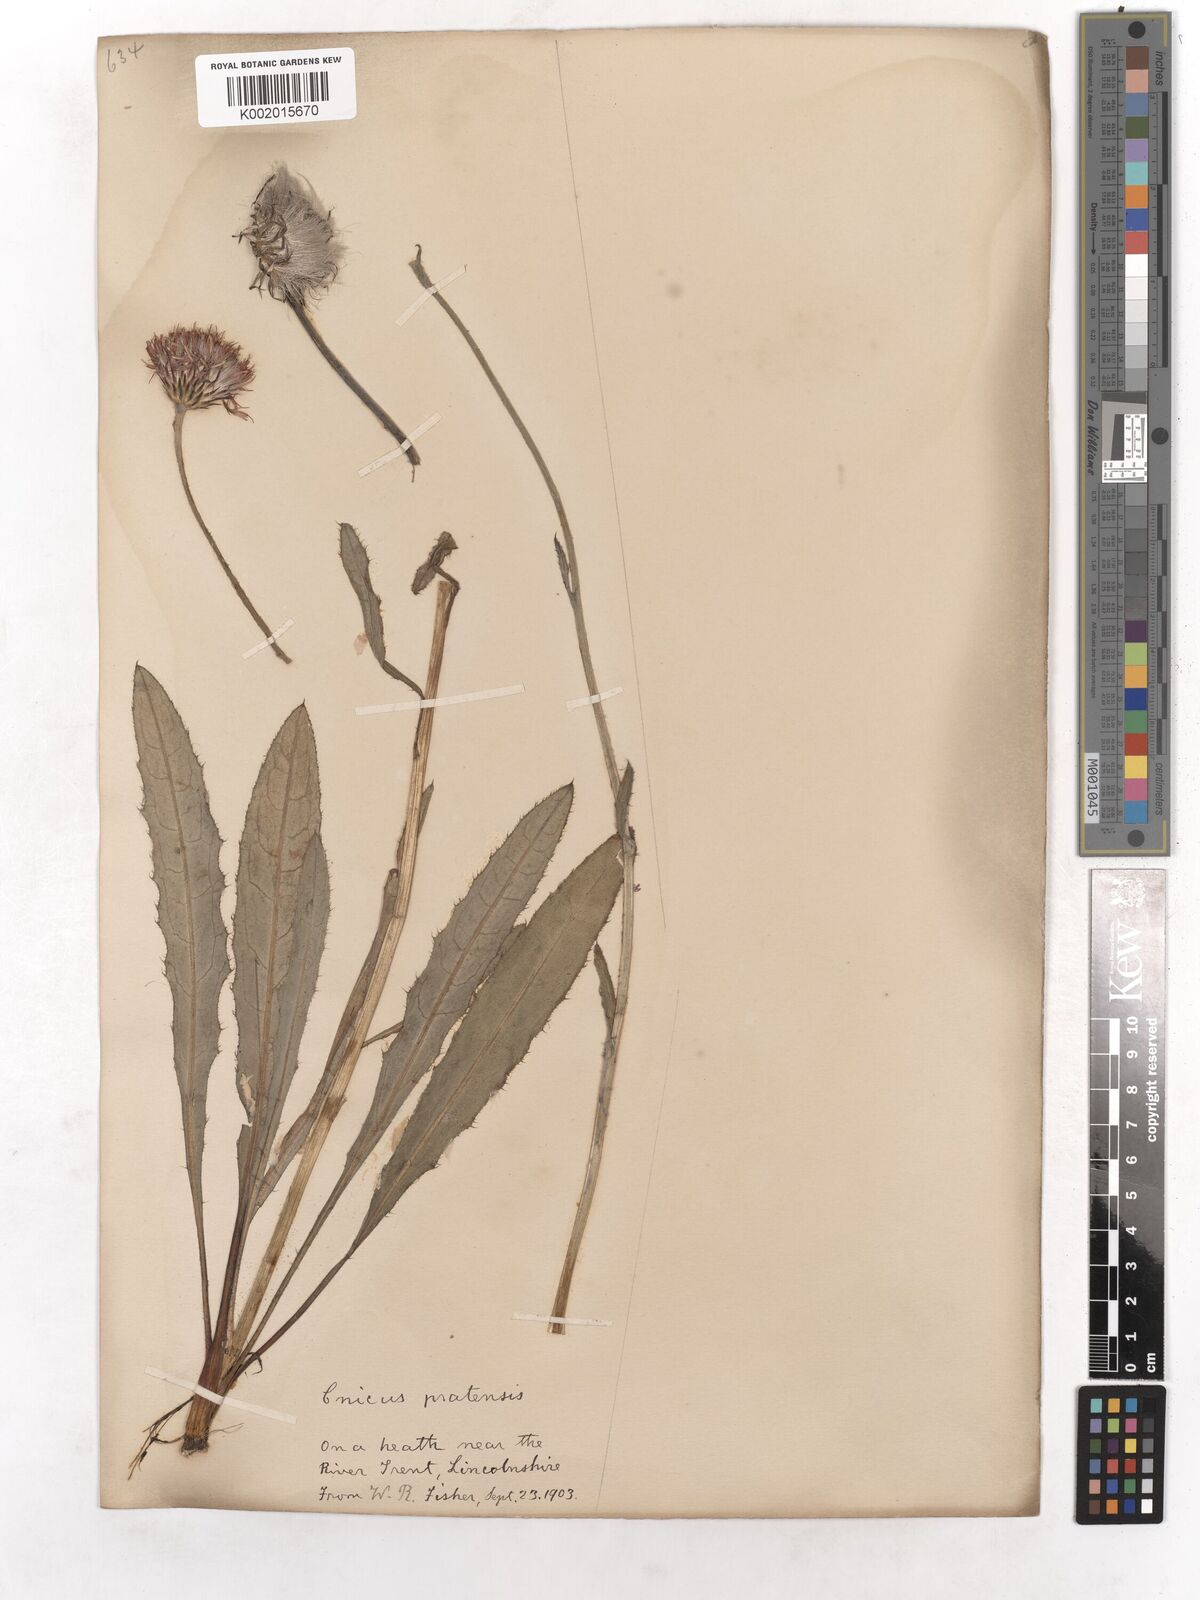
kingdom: Plantae
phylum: Tracheophyta
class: Magnoliopsida
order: Asterales
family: Asteraceae
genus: Cirsium
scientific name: Cirsium dissectum
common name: Meadow thistle
